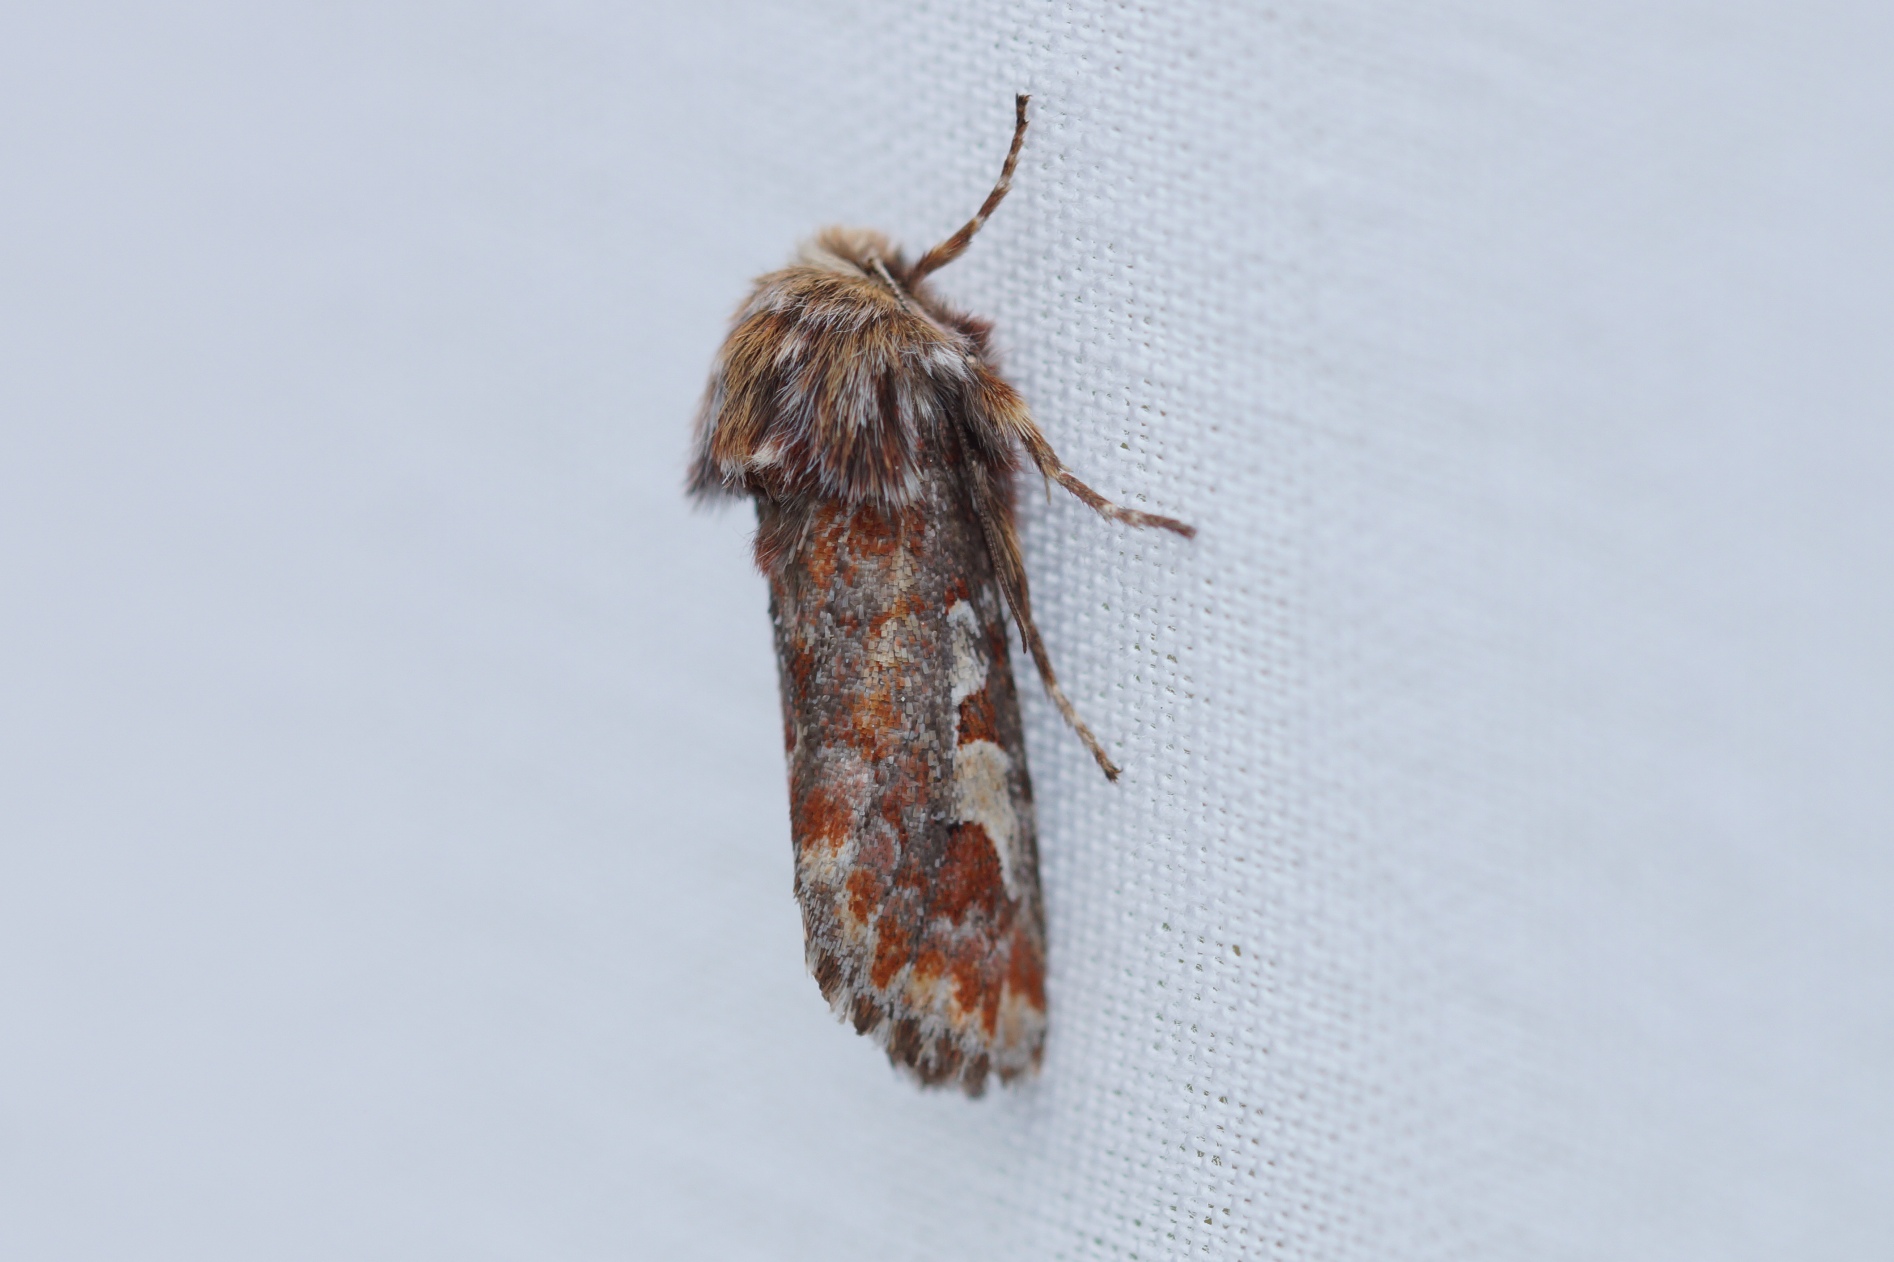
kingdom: Animalia
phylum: Arthropoda
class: Insecta
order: Lepidoptera
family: Noctuidae
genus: Panolis
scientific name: Panolis flammea
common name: Fyrreugle
